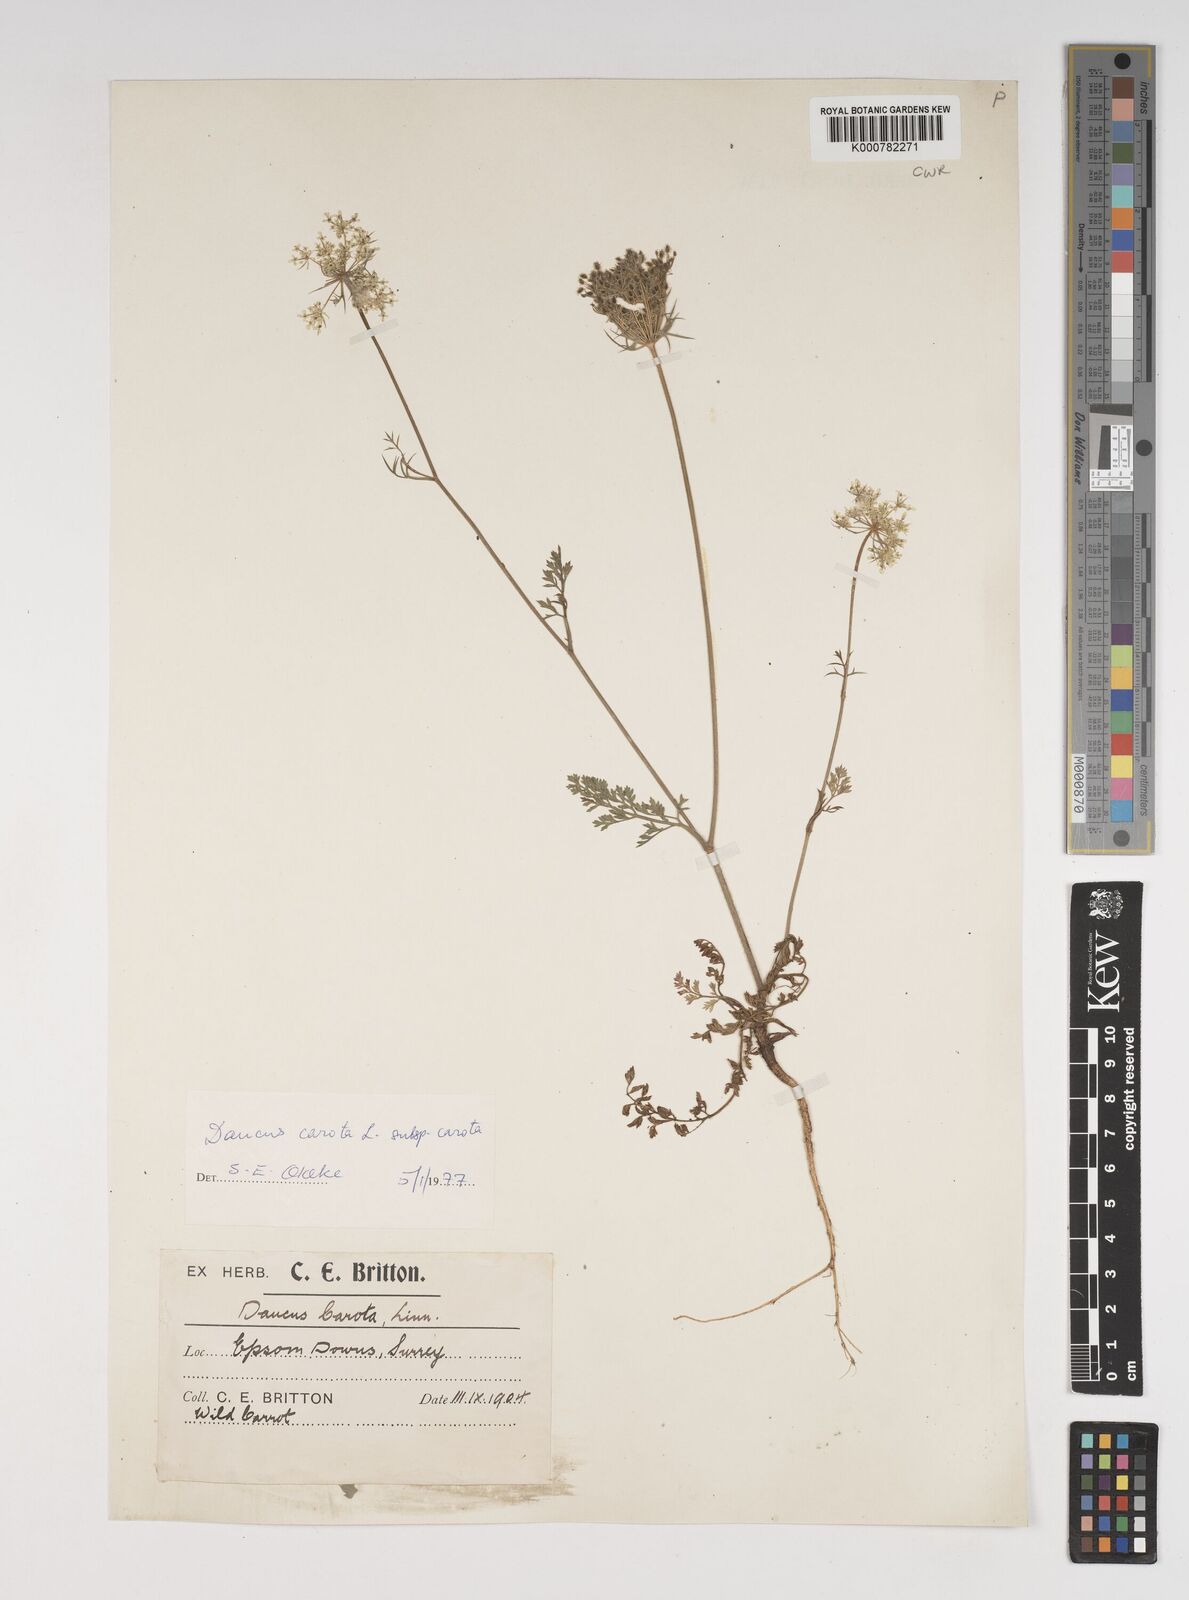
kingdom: Plantae
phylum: Tracheophyta
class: Magnoliopsida
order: Apiales
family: Apiaceae
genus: Daucus
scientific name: Daucus carota
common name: Wild carrot
